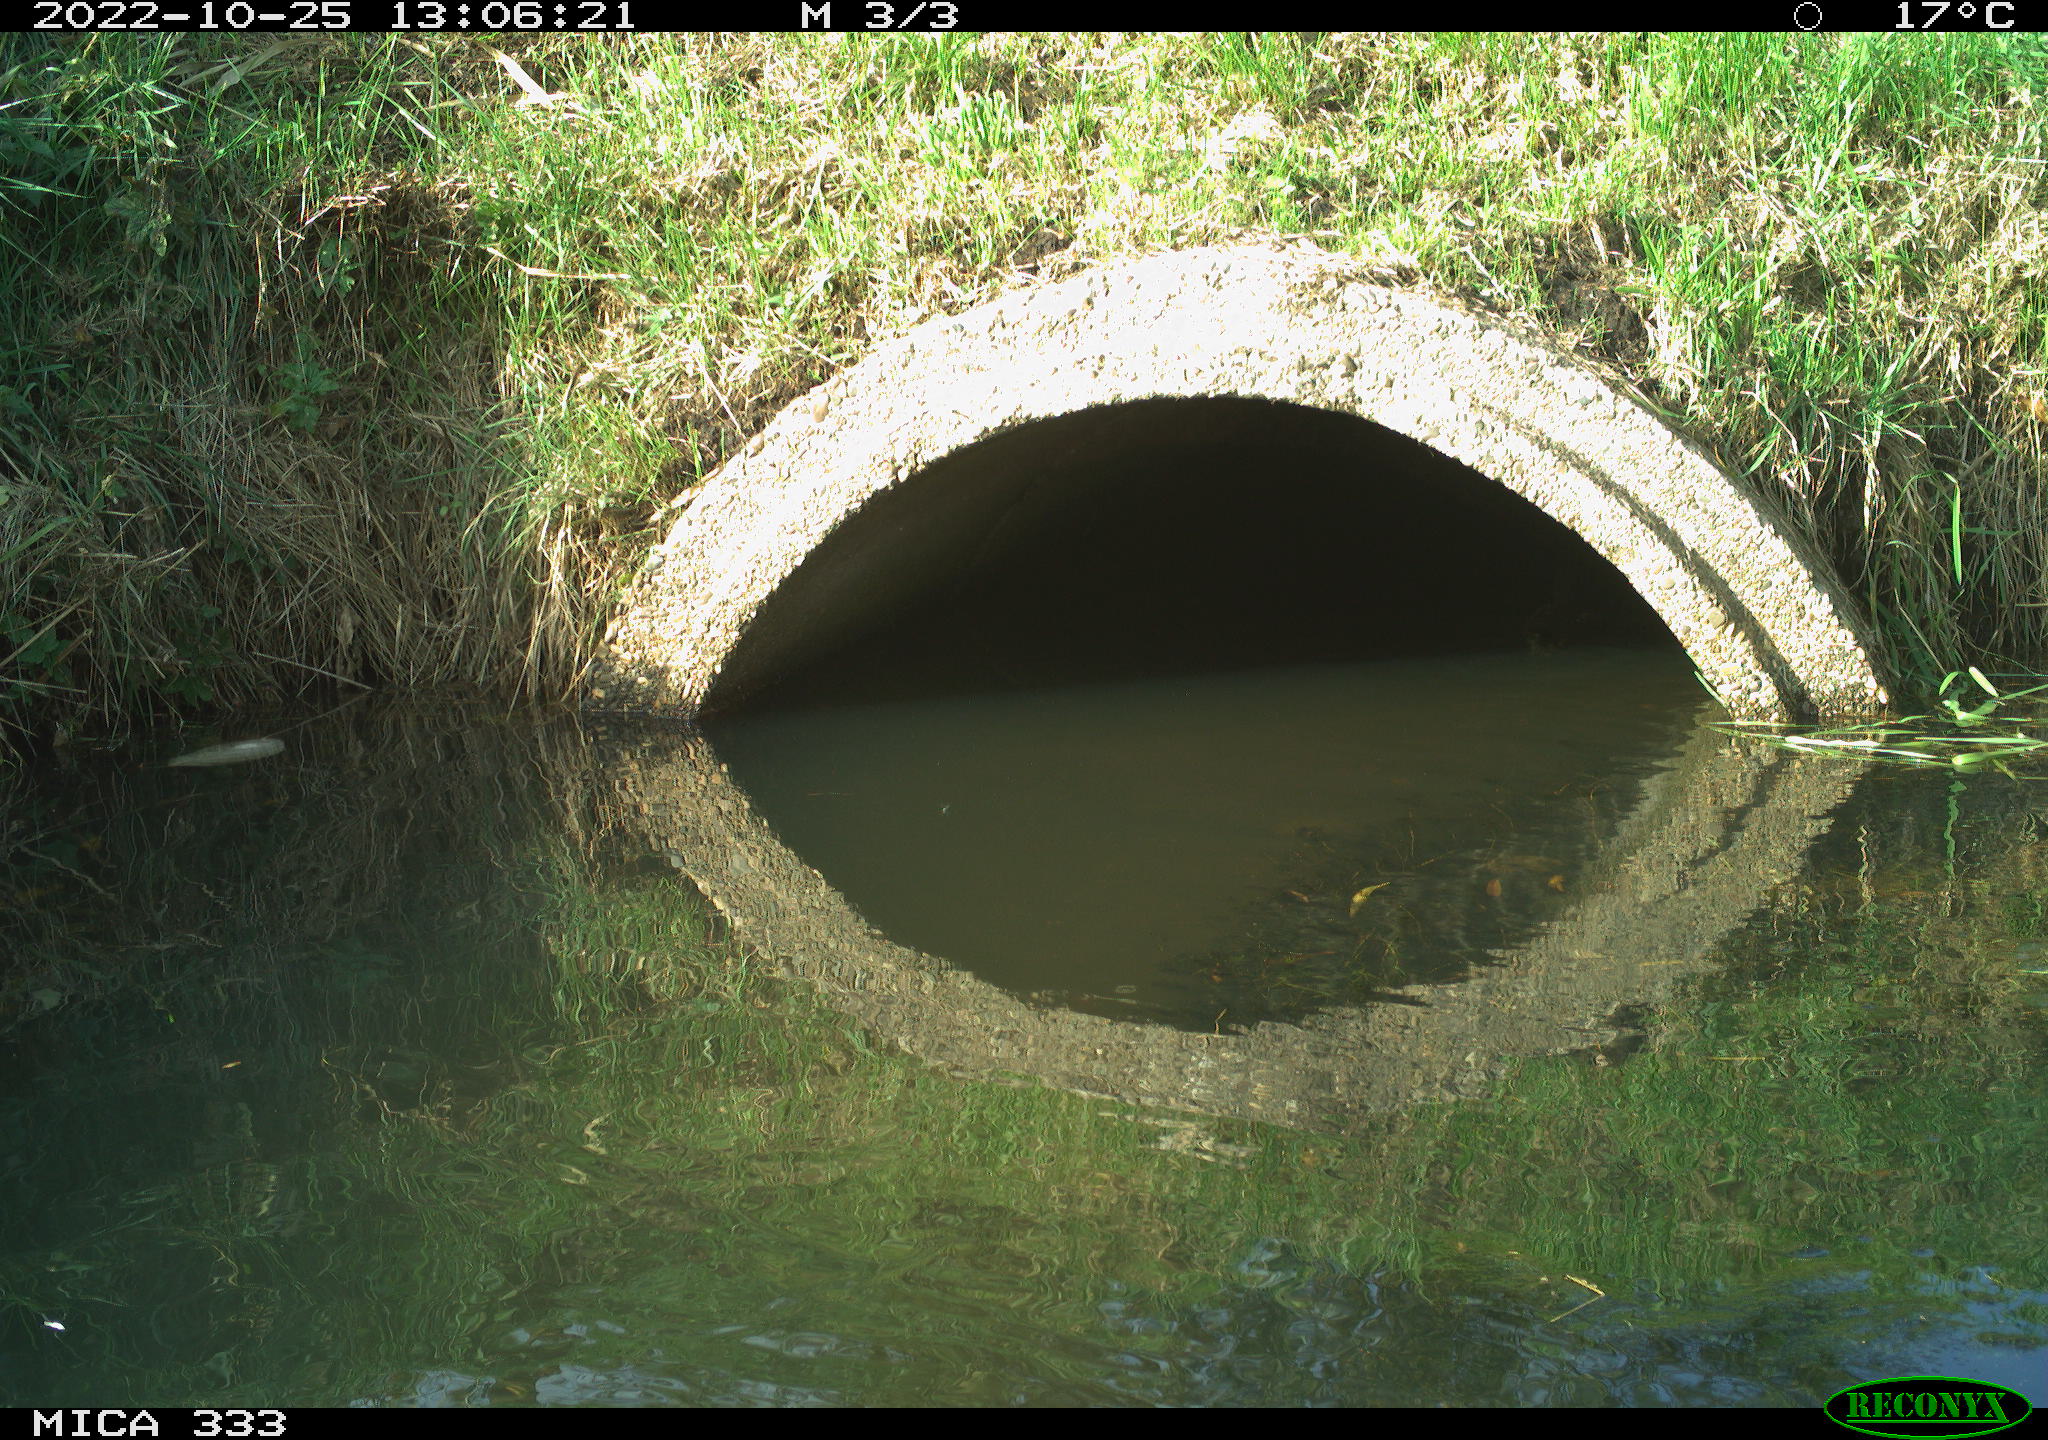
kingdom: Animalia
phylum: Chordata
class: Aves
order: Gruiformes
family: Rallidae
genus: Gallinula
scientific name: Gallinula chloropus
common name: Common moorhen
